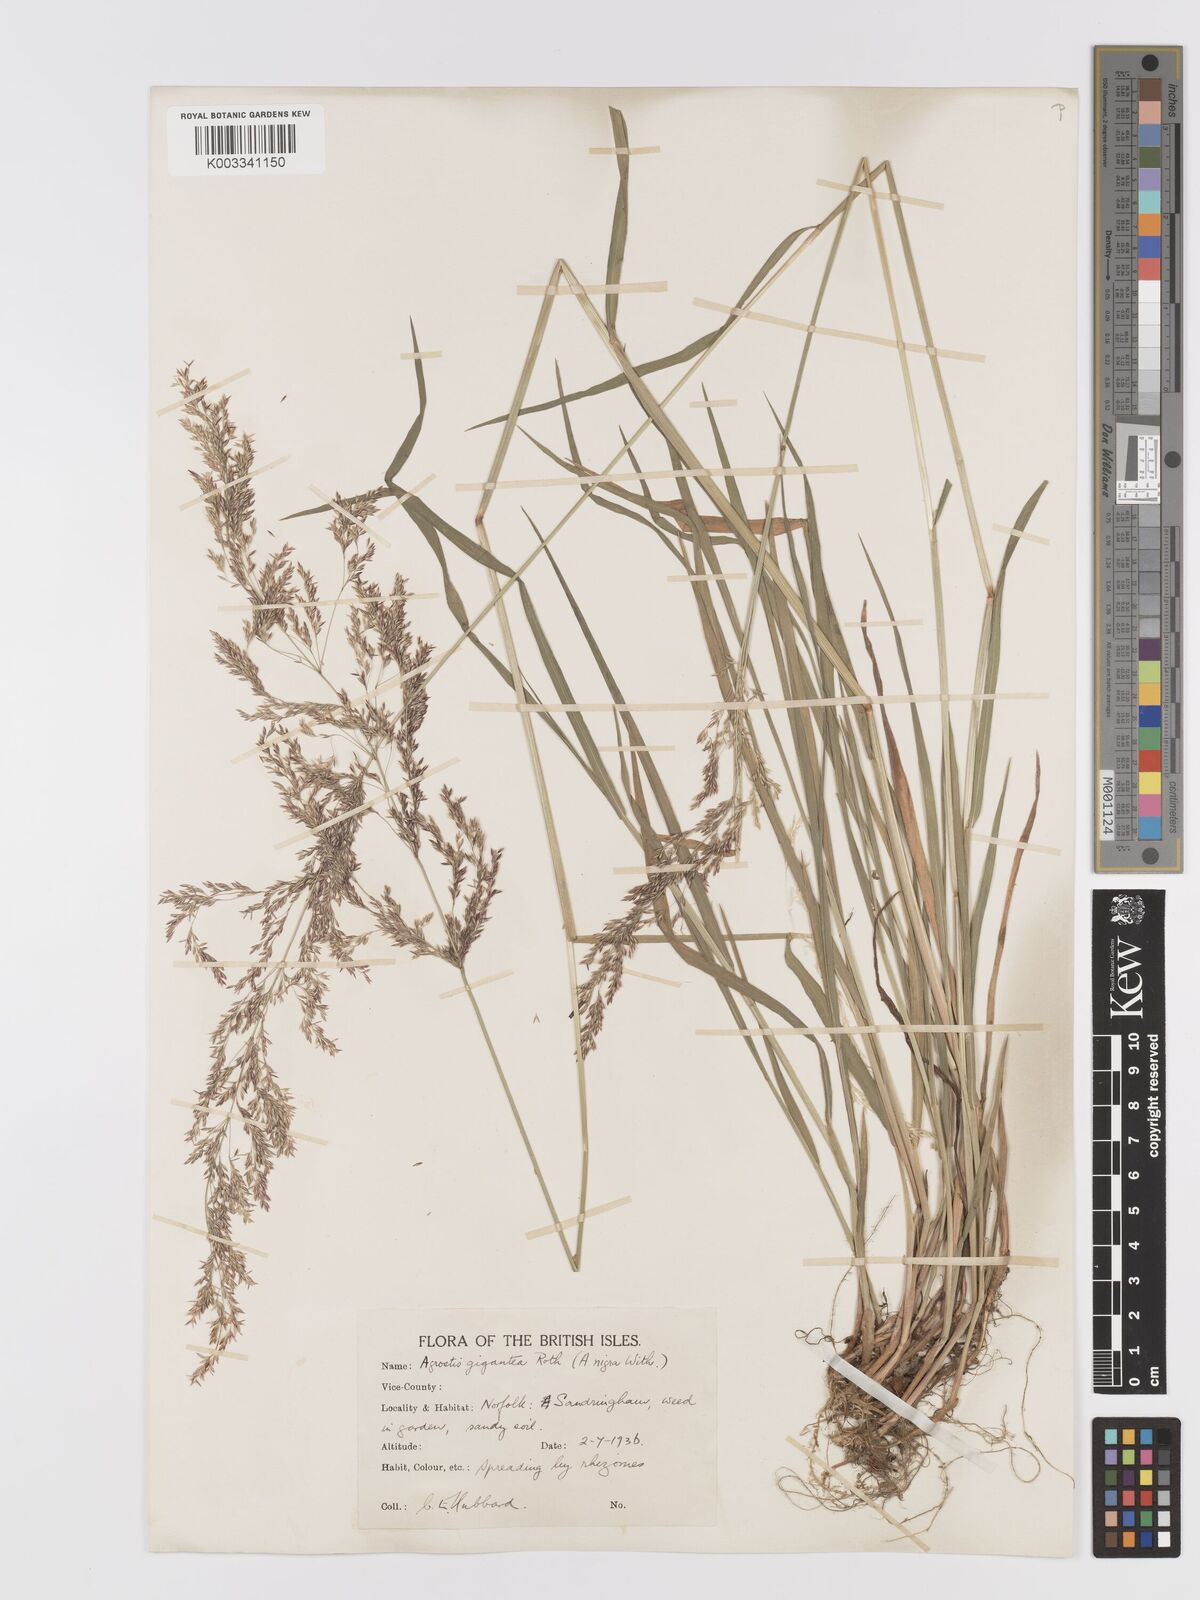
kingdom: Plantae
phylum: Tracheophyta
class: Liliopsida
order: Poales
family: Poaceae
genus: Agrostis
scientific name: Agrostis gigantea
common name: Black bent
